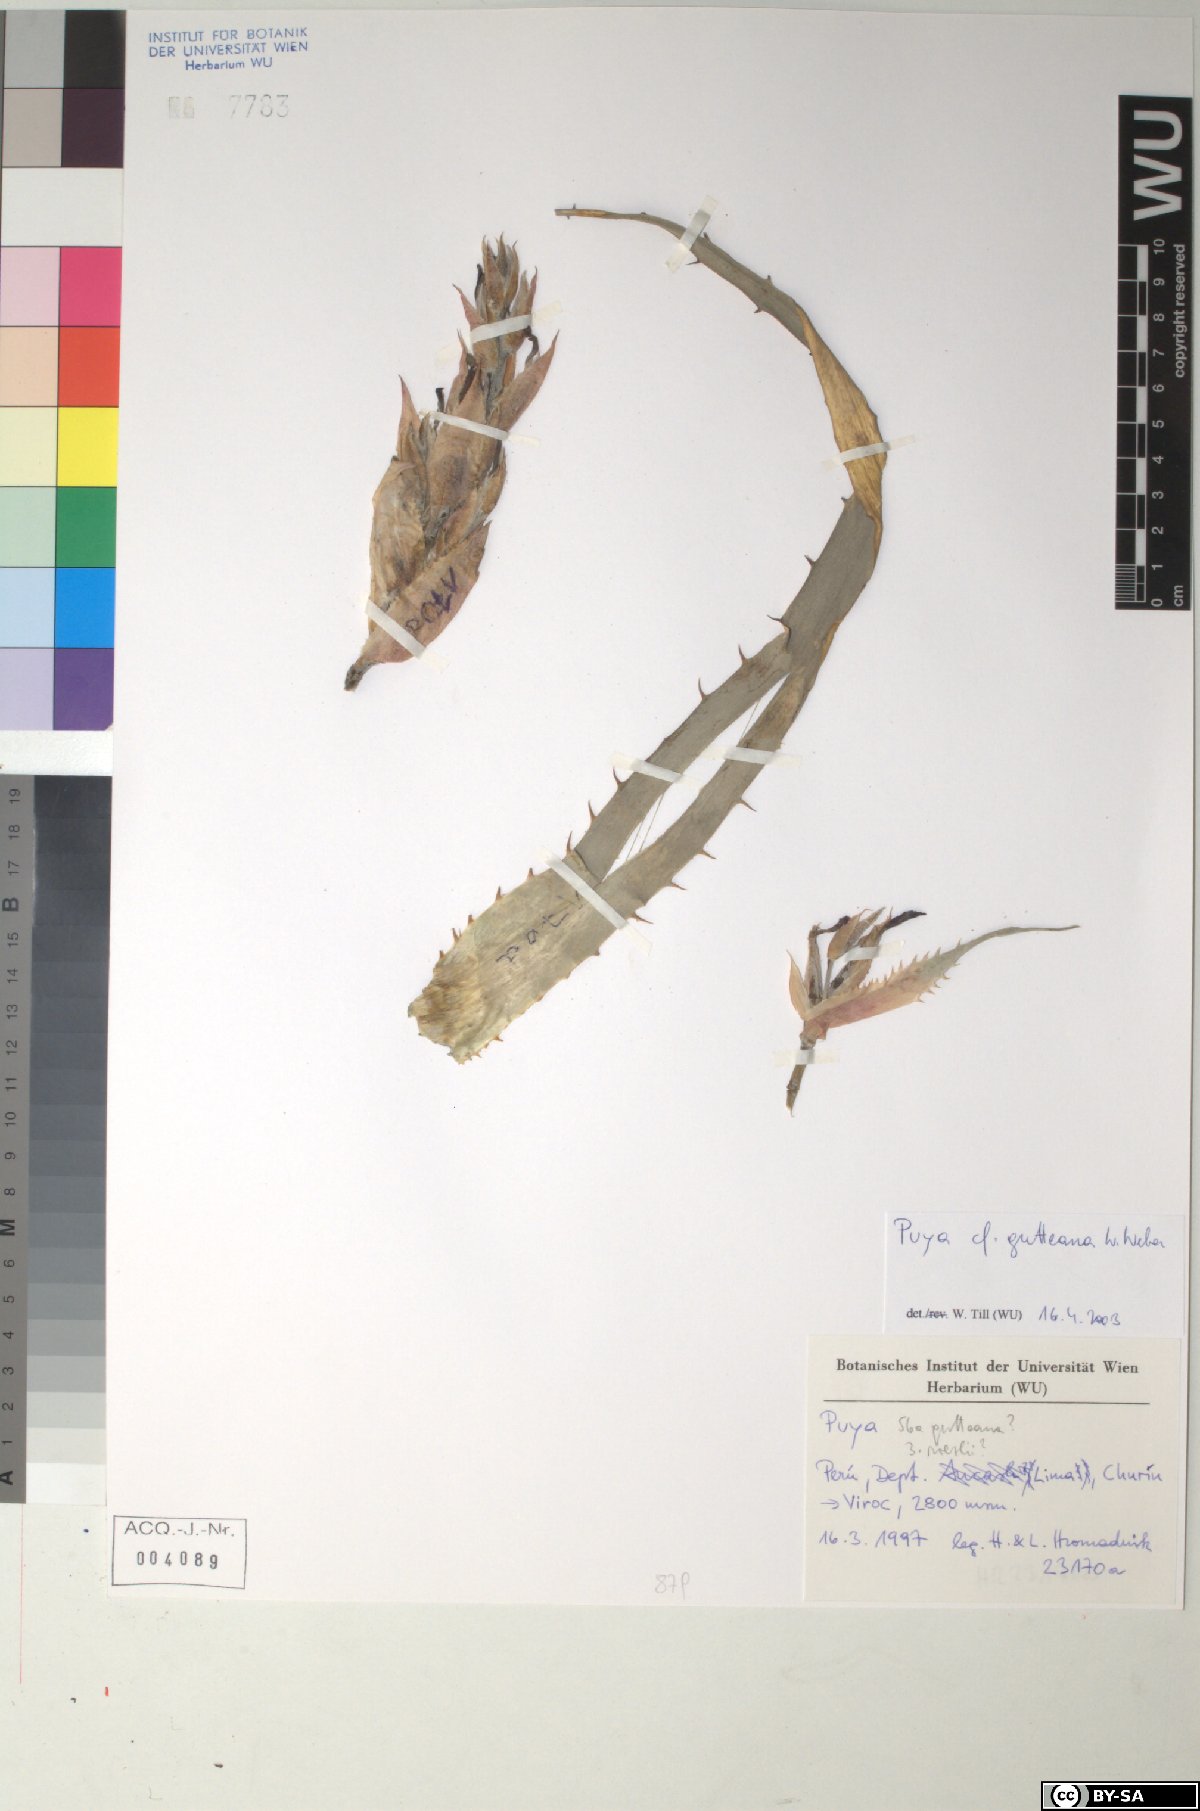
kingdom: Plantae
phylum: Tracheophyta
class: Liliopsida
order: Poales
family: Bromeliaceae
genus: Puya
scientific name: Puya gutteana
